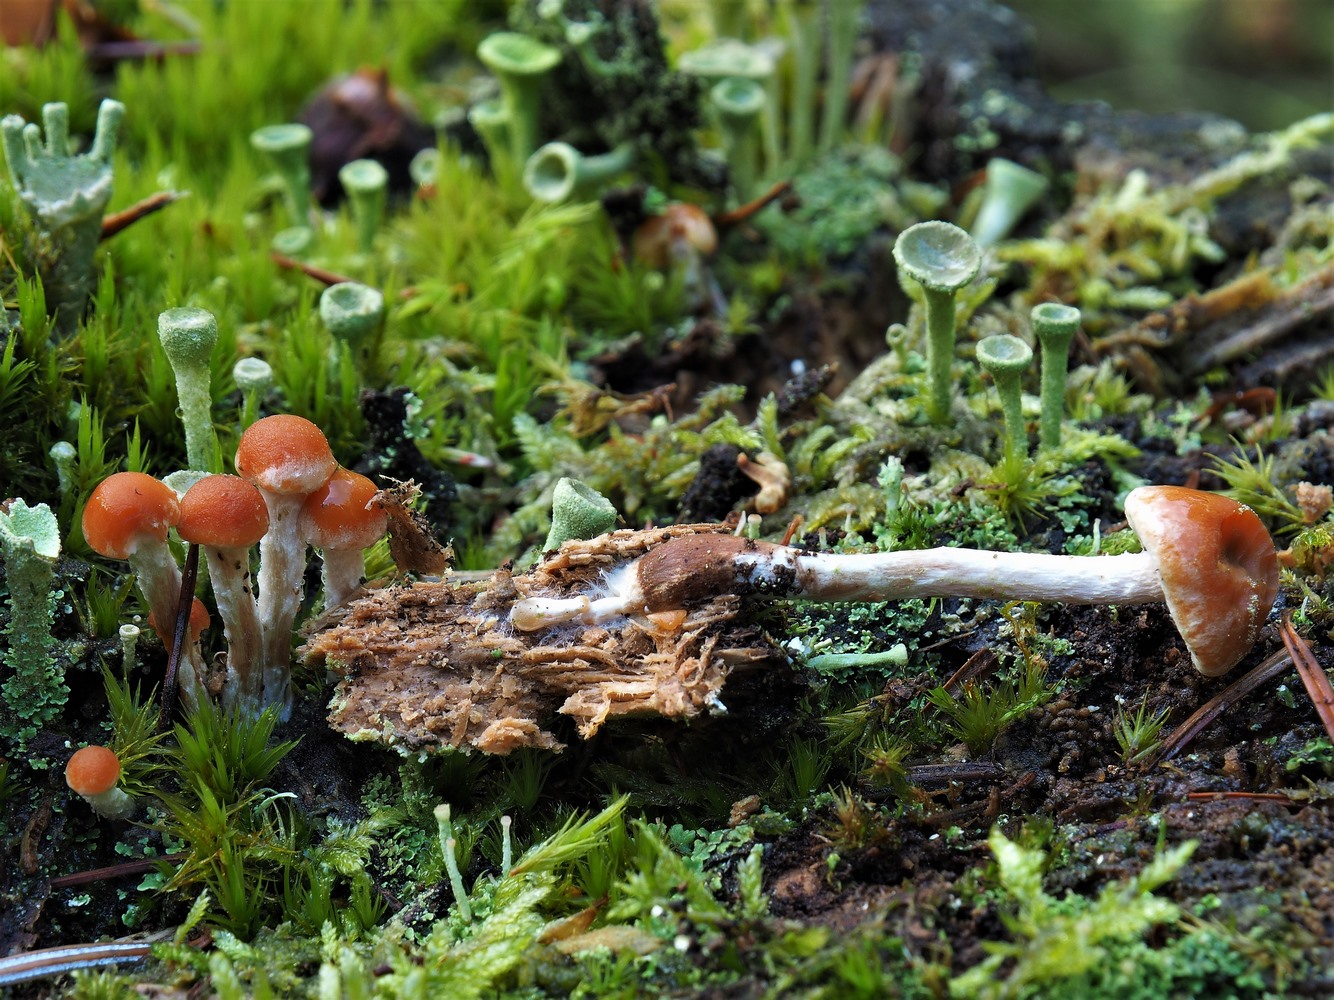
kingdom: Fungi
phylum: Basidiomycota
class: Agaricomycetes
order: Agaricales
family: Strophariaceae
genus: Hypholoma
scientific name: Hypholoma marginatum
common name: enlig svovlhat
